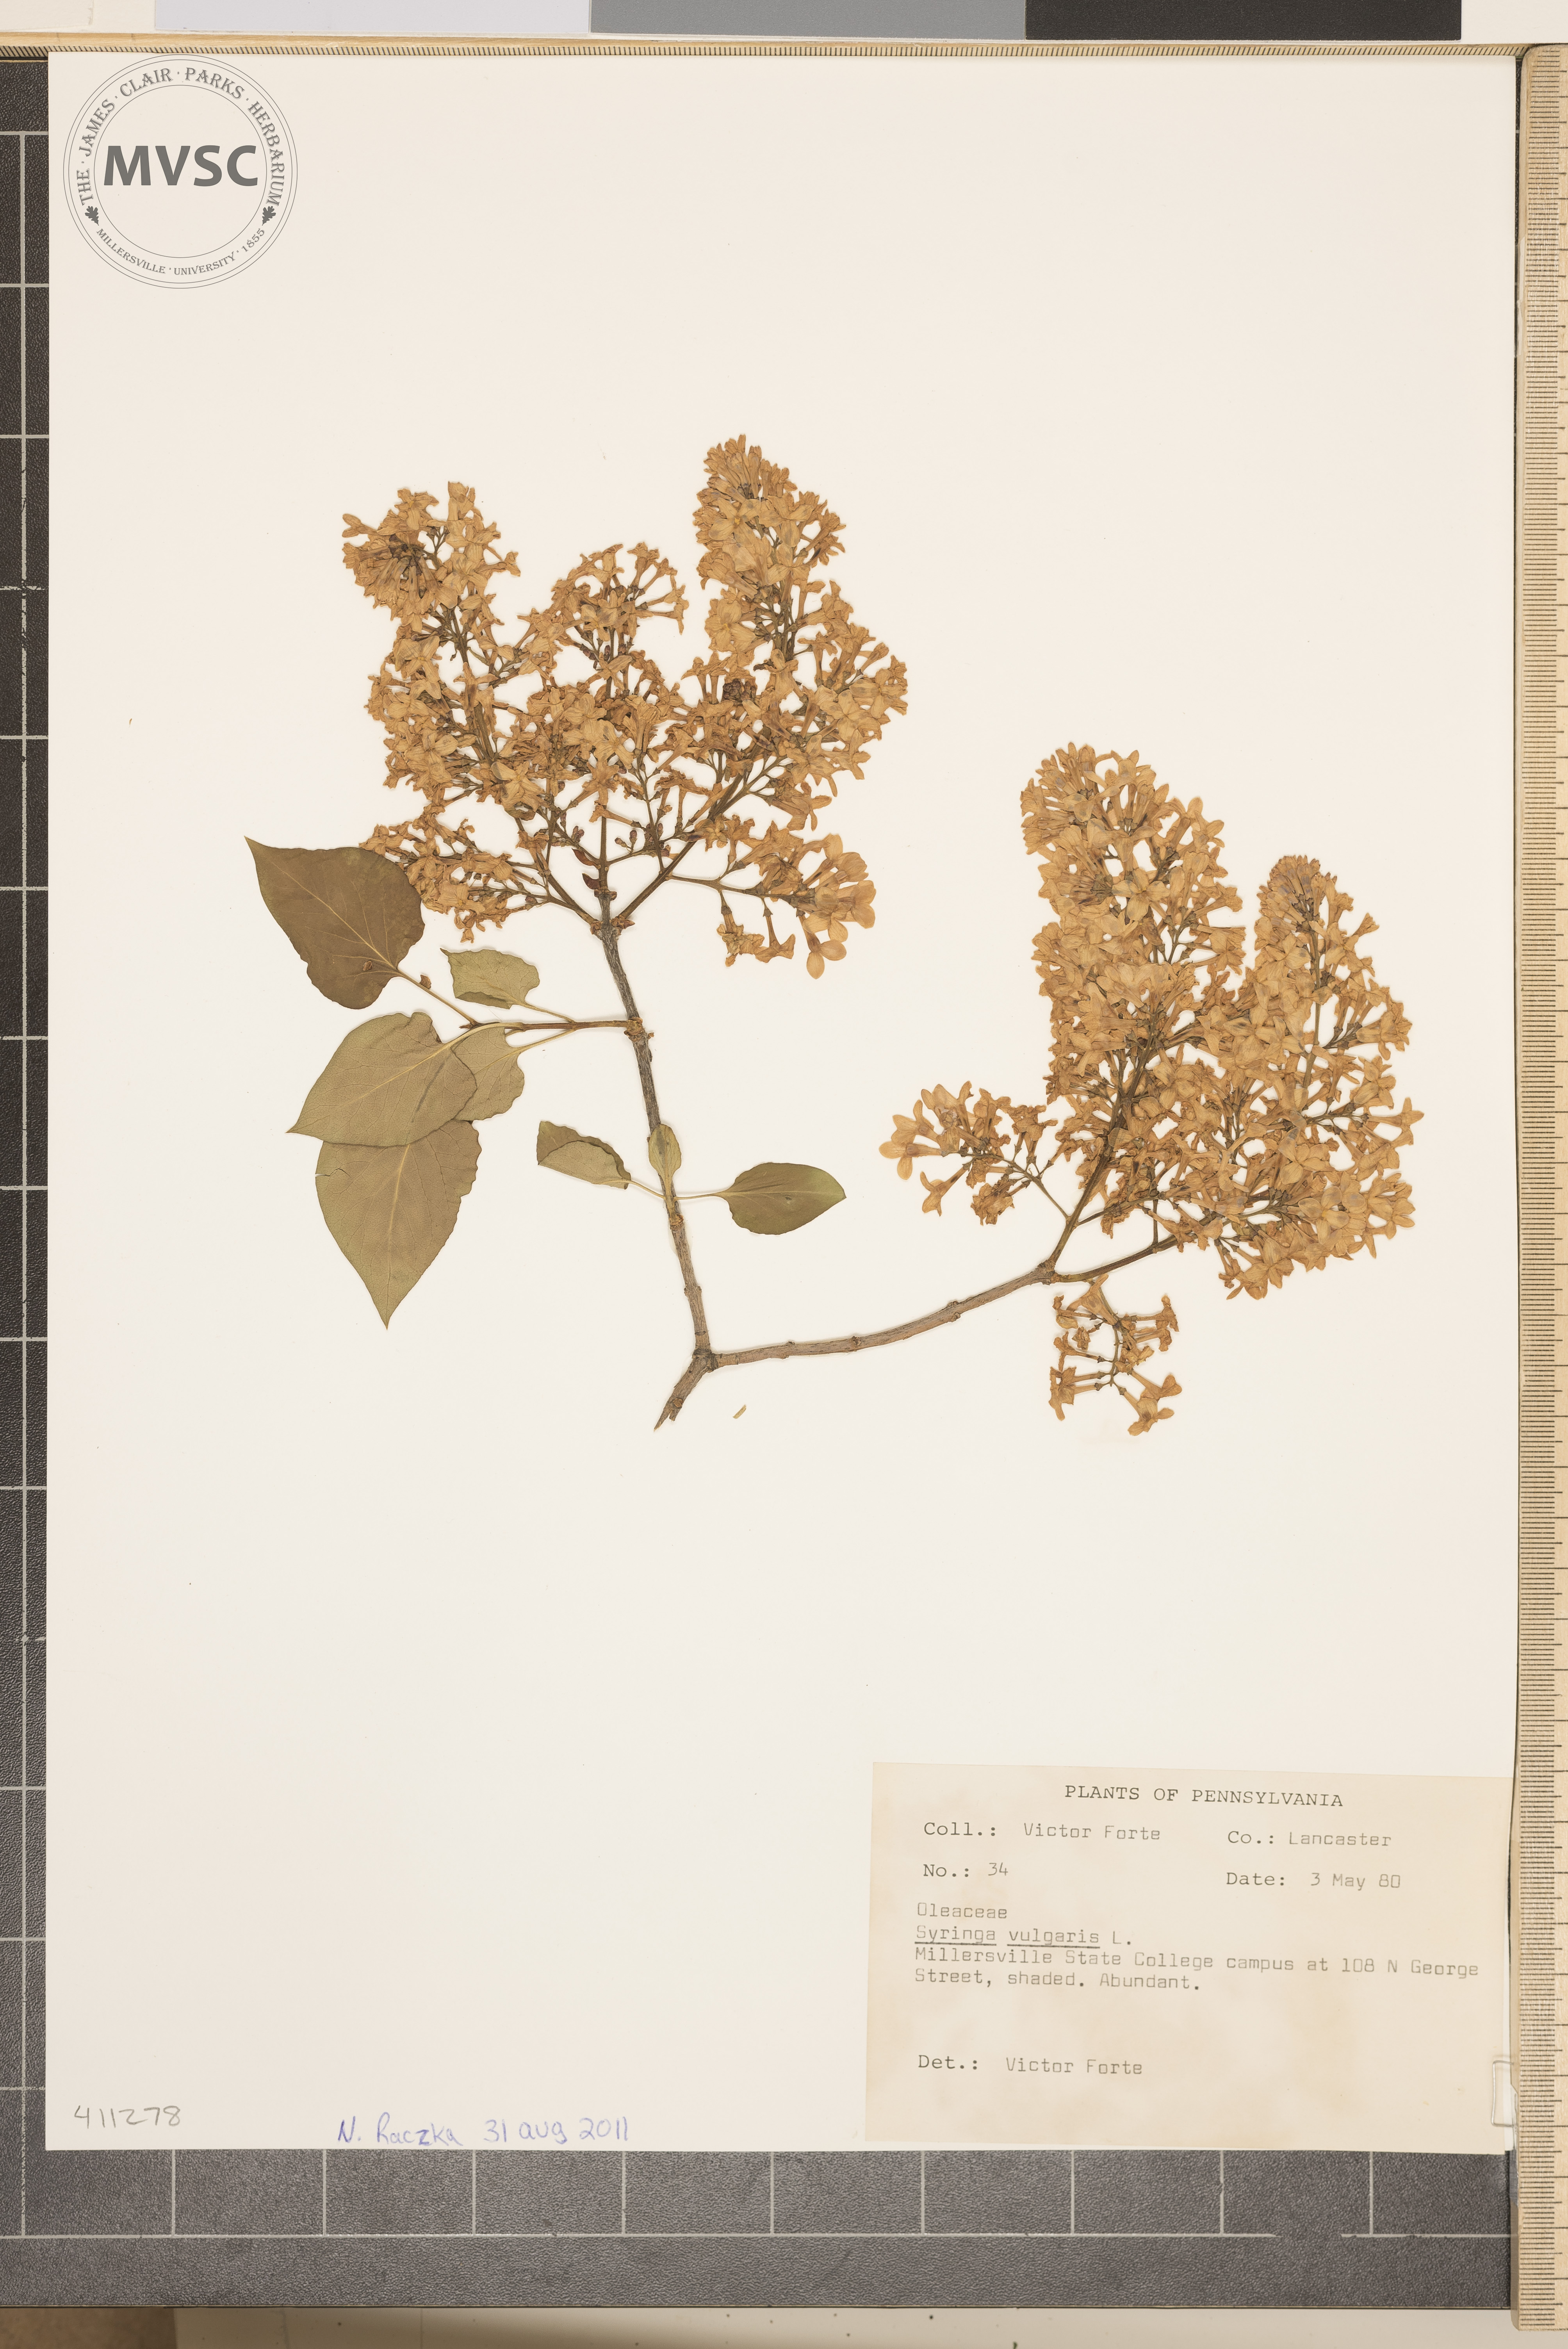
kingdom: Plantae
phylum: Tracheophyta
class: Magnoliopsida
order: Lamiales
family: Oleaceae
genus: Syringa
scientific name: Syringa vulgaris
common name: Common lilac
